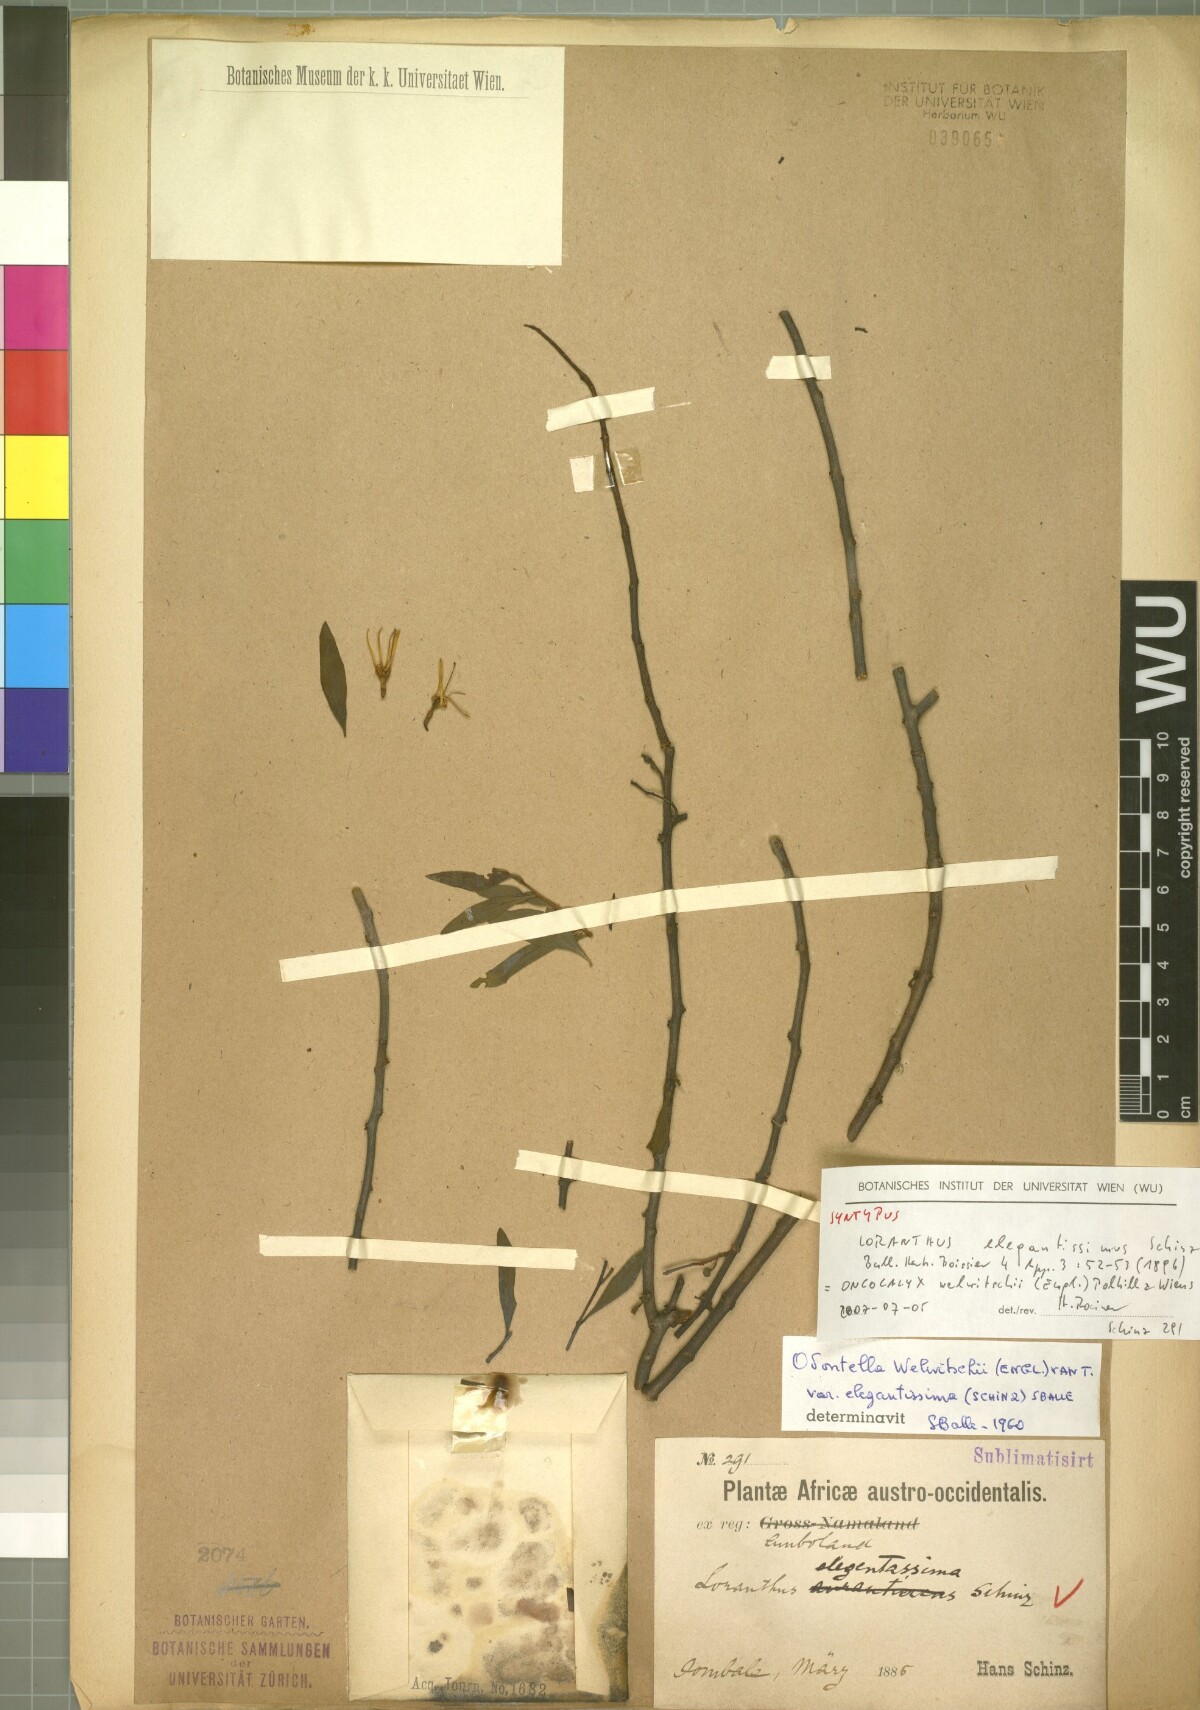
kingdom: Plantae
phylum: Tracheophyta
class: Magnoliopsida
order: Santalales
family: Loranthaceae
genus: Loranthella
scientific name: Loranthella welwitschii
